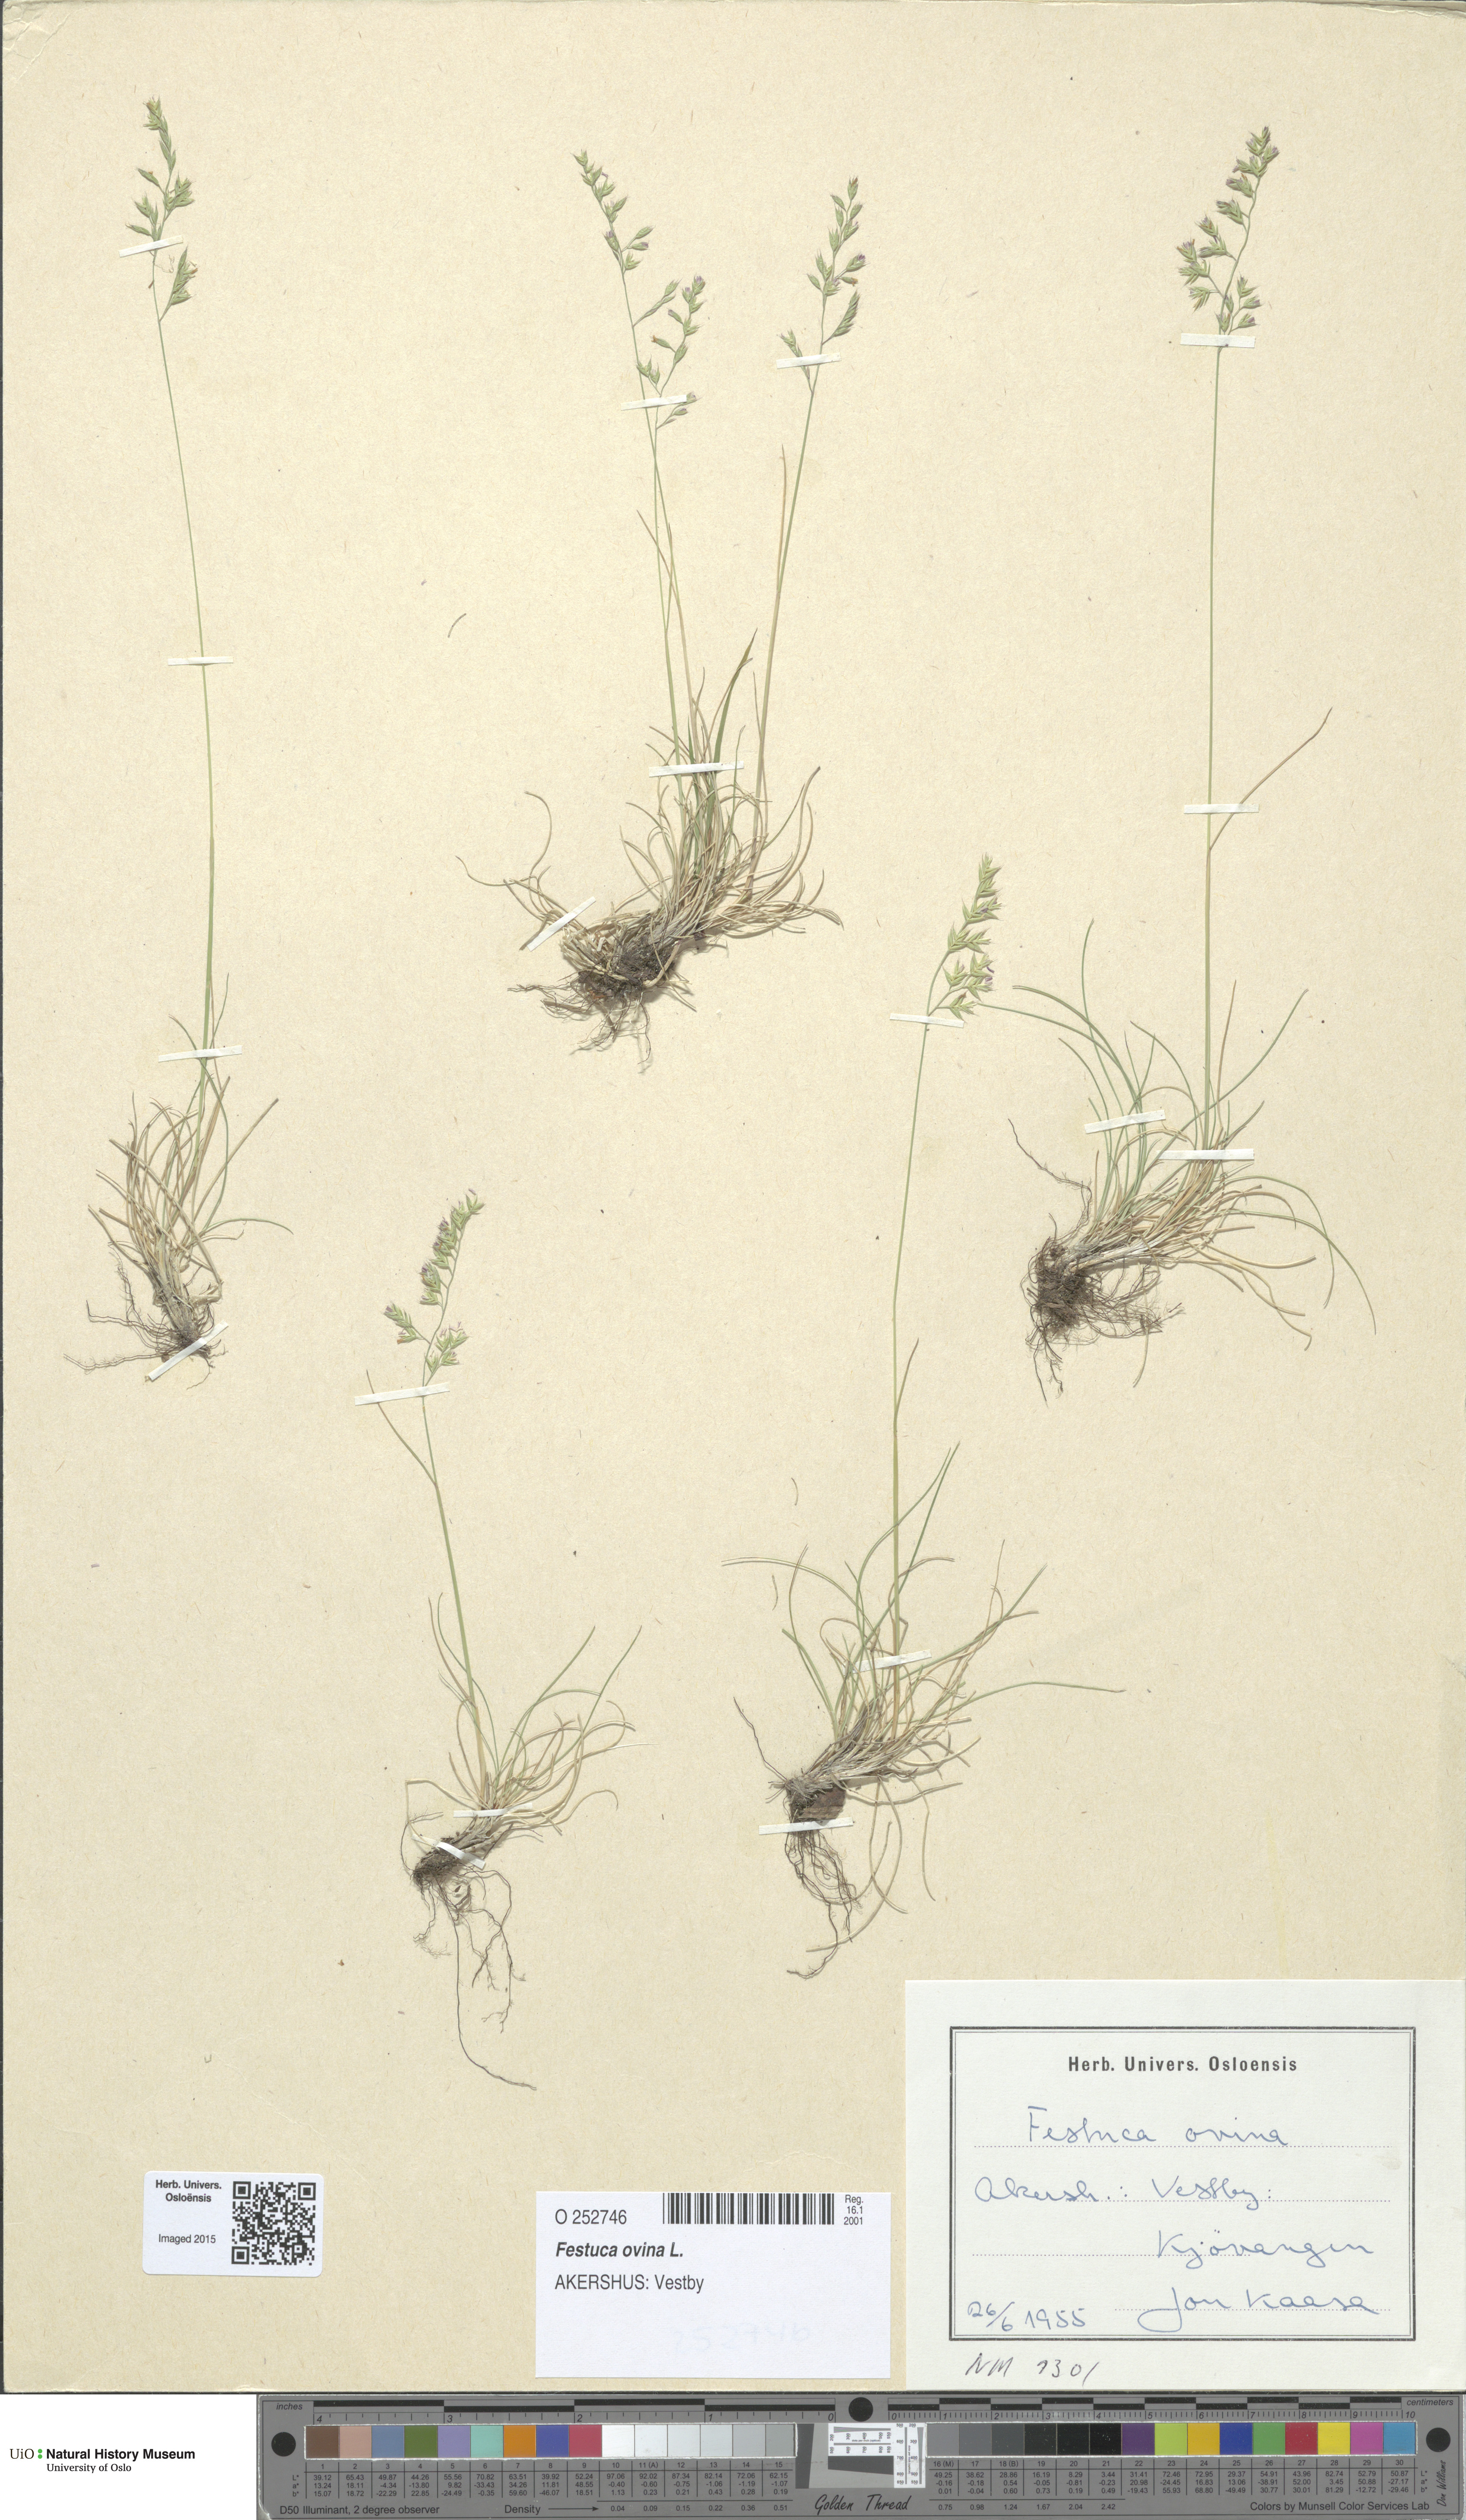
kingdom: Plantae
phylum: Tracheophyta
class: Liliopsida
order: Poales
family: Poaceae
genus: Festuca
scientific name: Festuca ovina
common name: Sheep fescue
